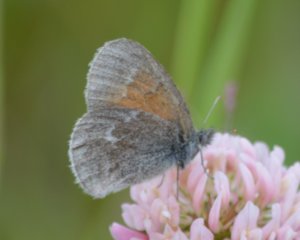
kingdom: Animalia
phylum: Arthropoda
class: Insecta
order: Lepidoptera
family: Nymphalidae
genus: Coenonympha
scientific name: Coenonympha tullia
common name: Large Heath
